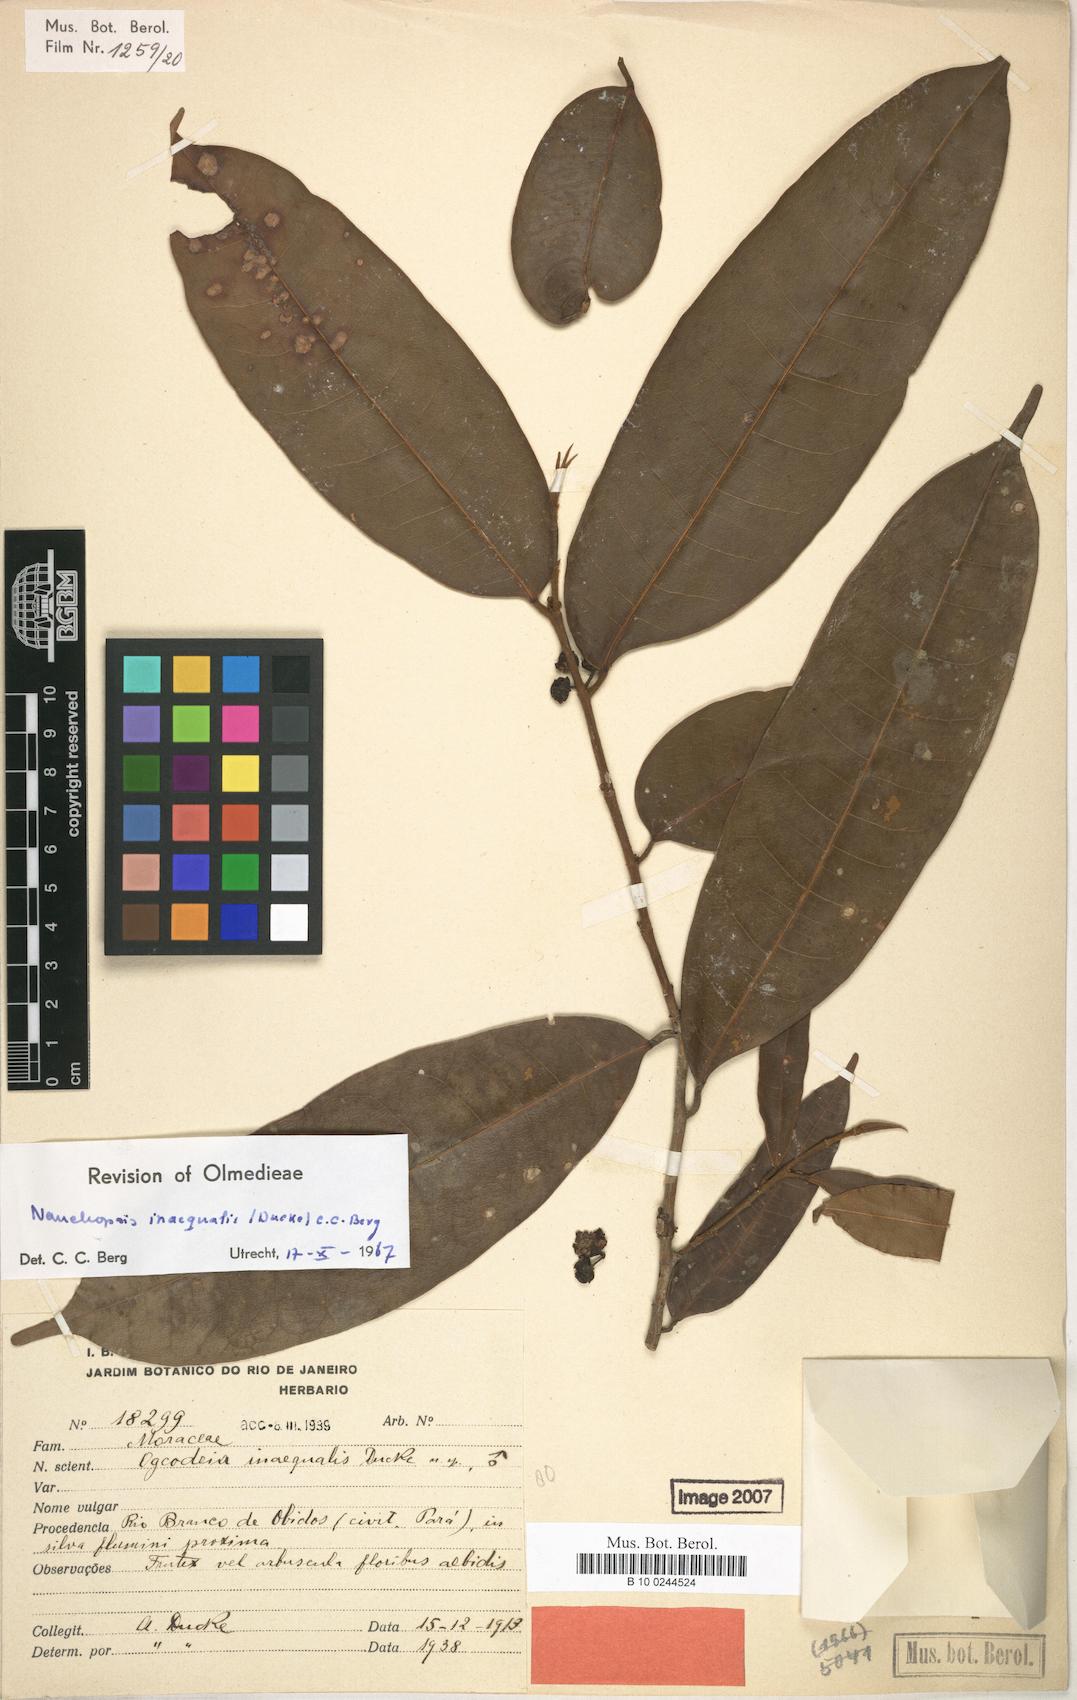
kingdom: Plantae
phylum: Tracheophyta
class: Magnoliopsida
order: Rosales
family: Moraceae
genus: Naucleopsis
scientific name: Naucleopsis inaequalis
